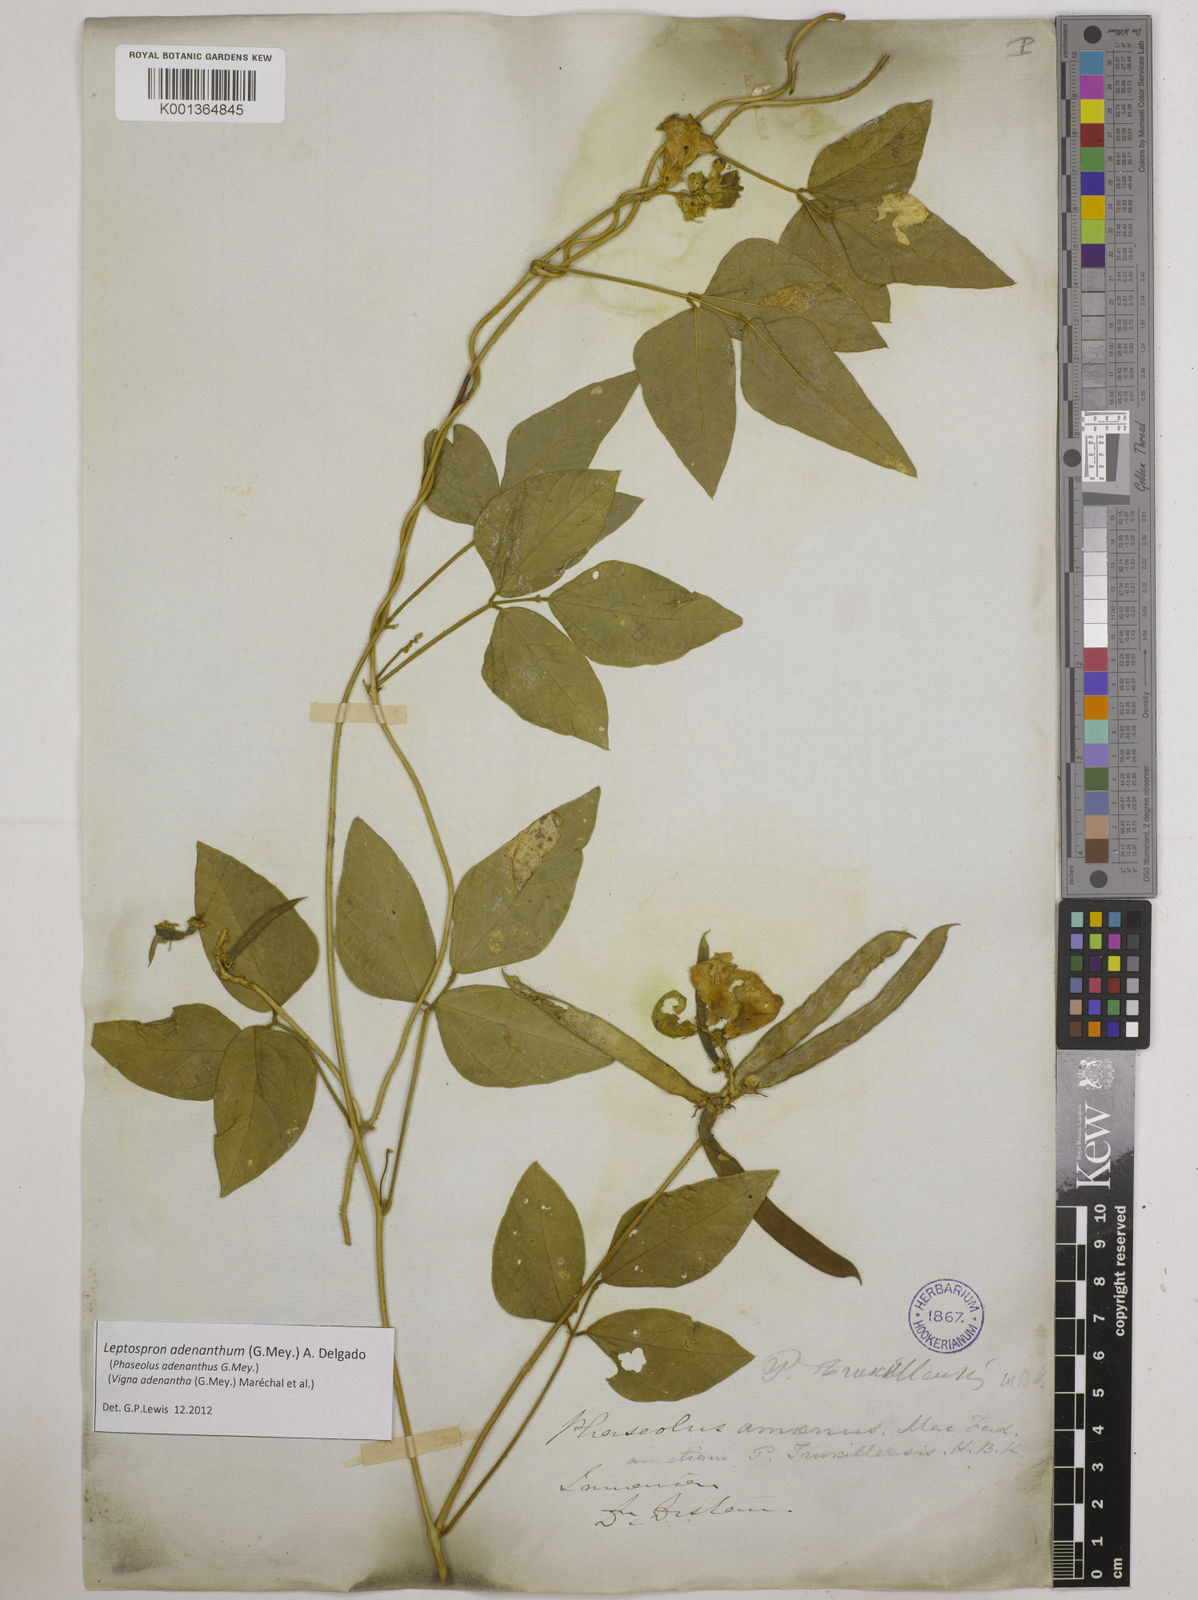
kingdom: Plantae
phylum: Tracheophyta
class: Magnoliopsida
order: Fabales
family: Fabaceae
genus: Leptospron
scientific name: Leptospron adenanthum
